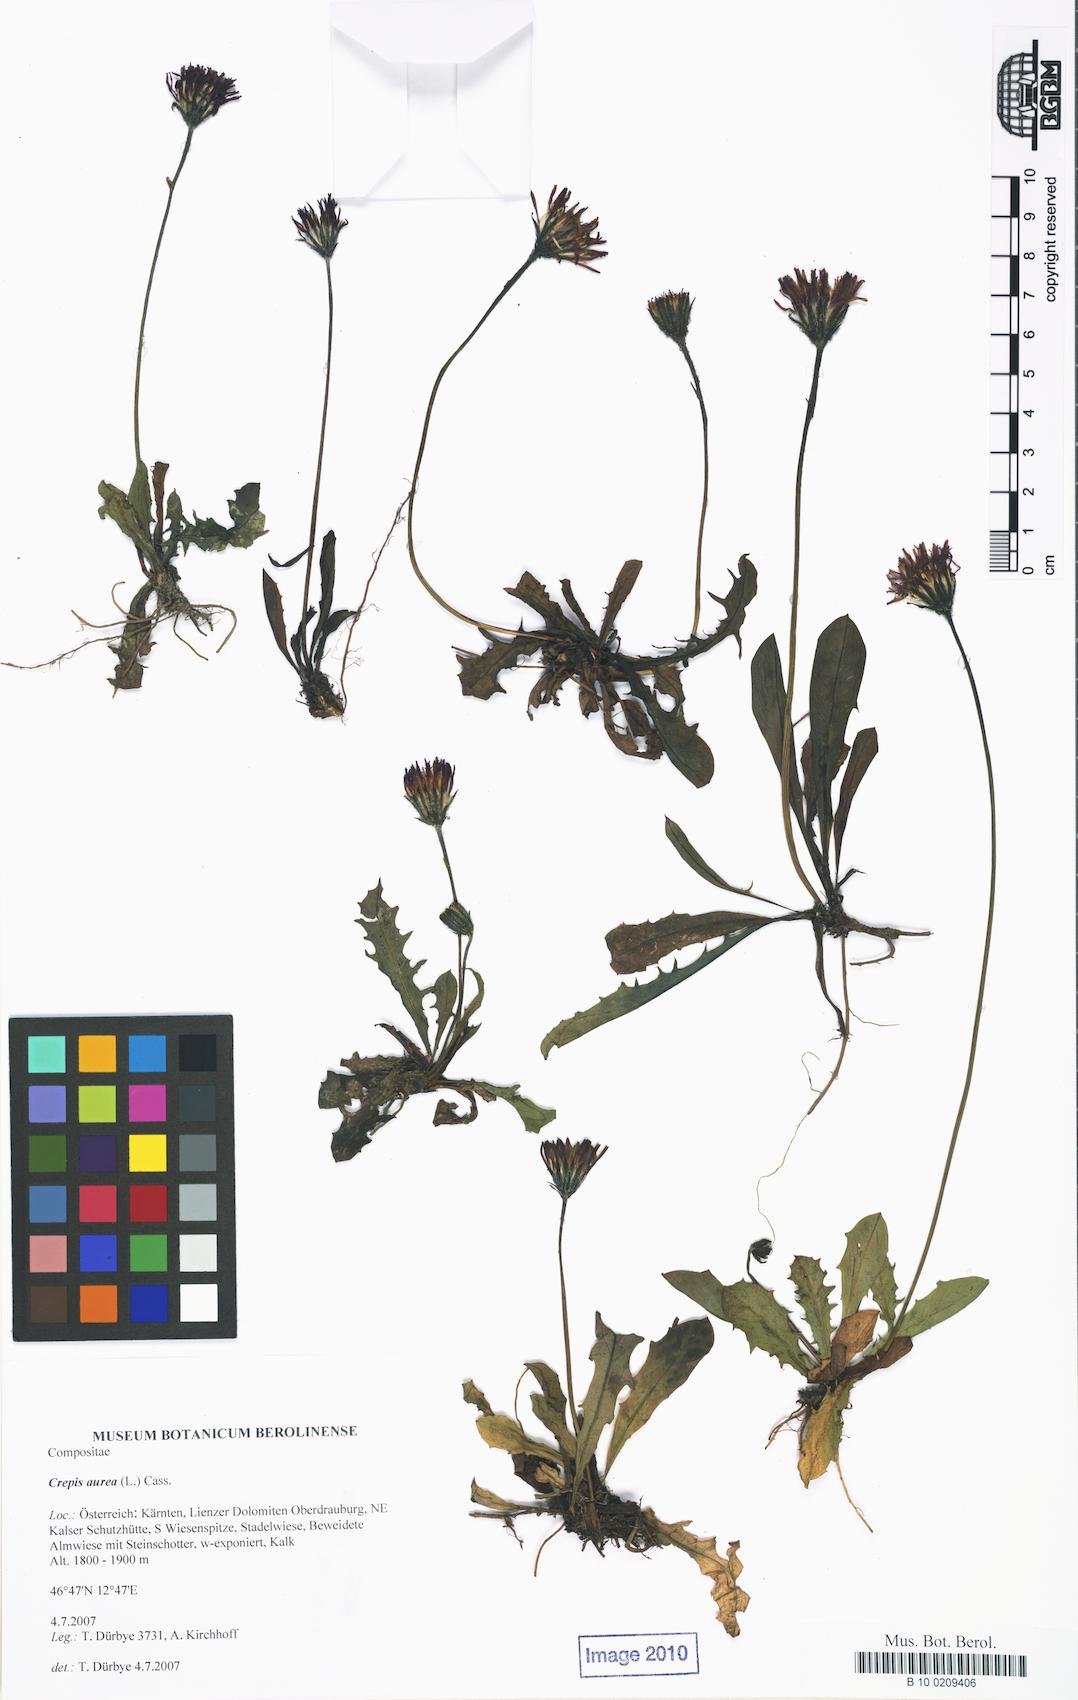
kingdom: Plantae
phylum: Tracheophyta
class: Magnoliopsida
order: Asterales
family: Asteraceae
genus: Crepis
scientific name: Crepis aurea
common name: Golden hawk's-beard
